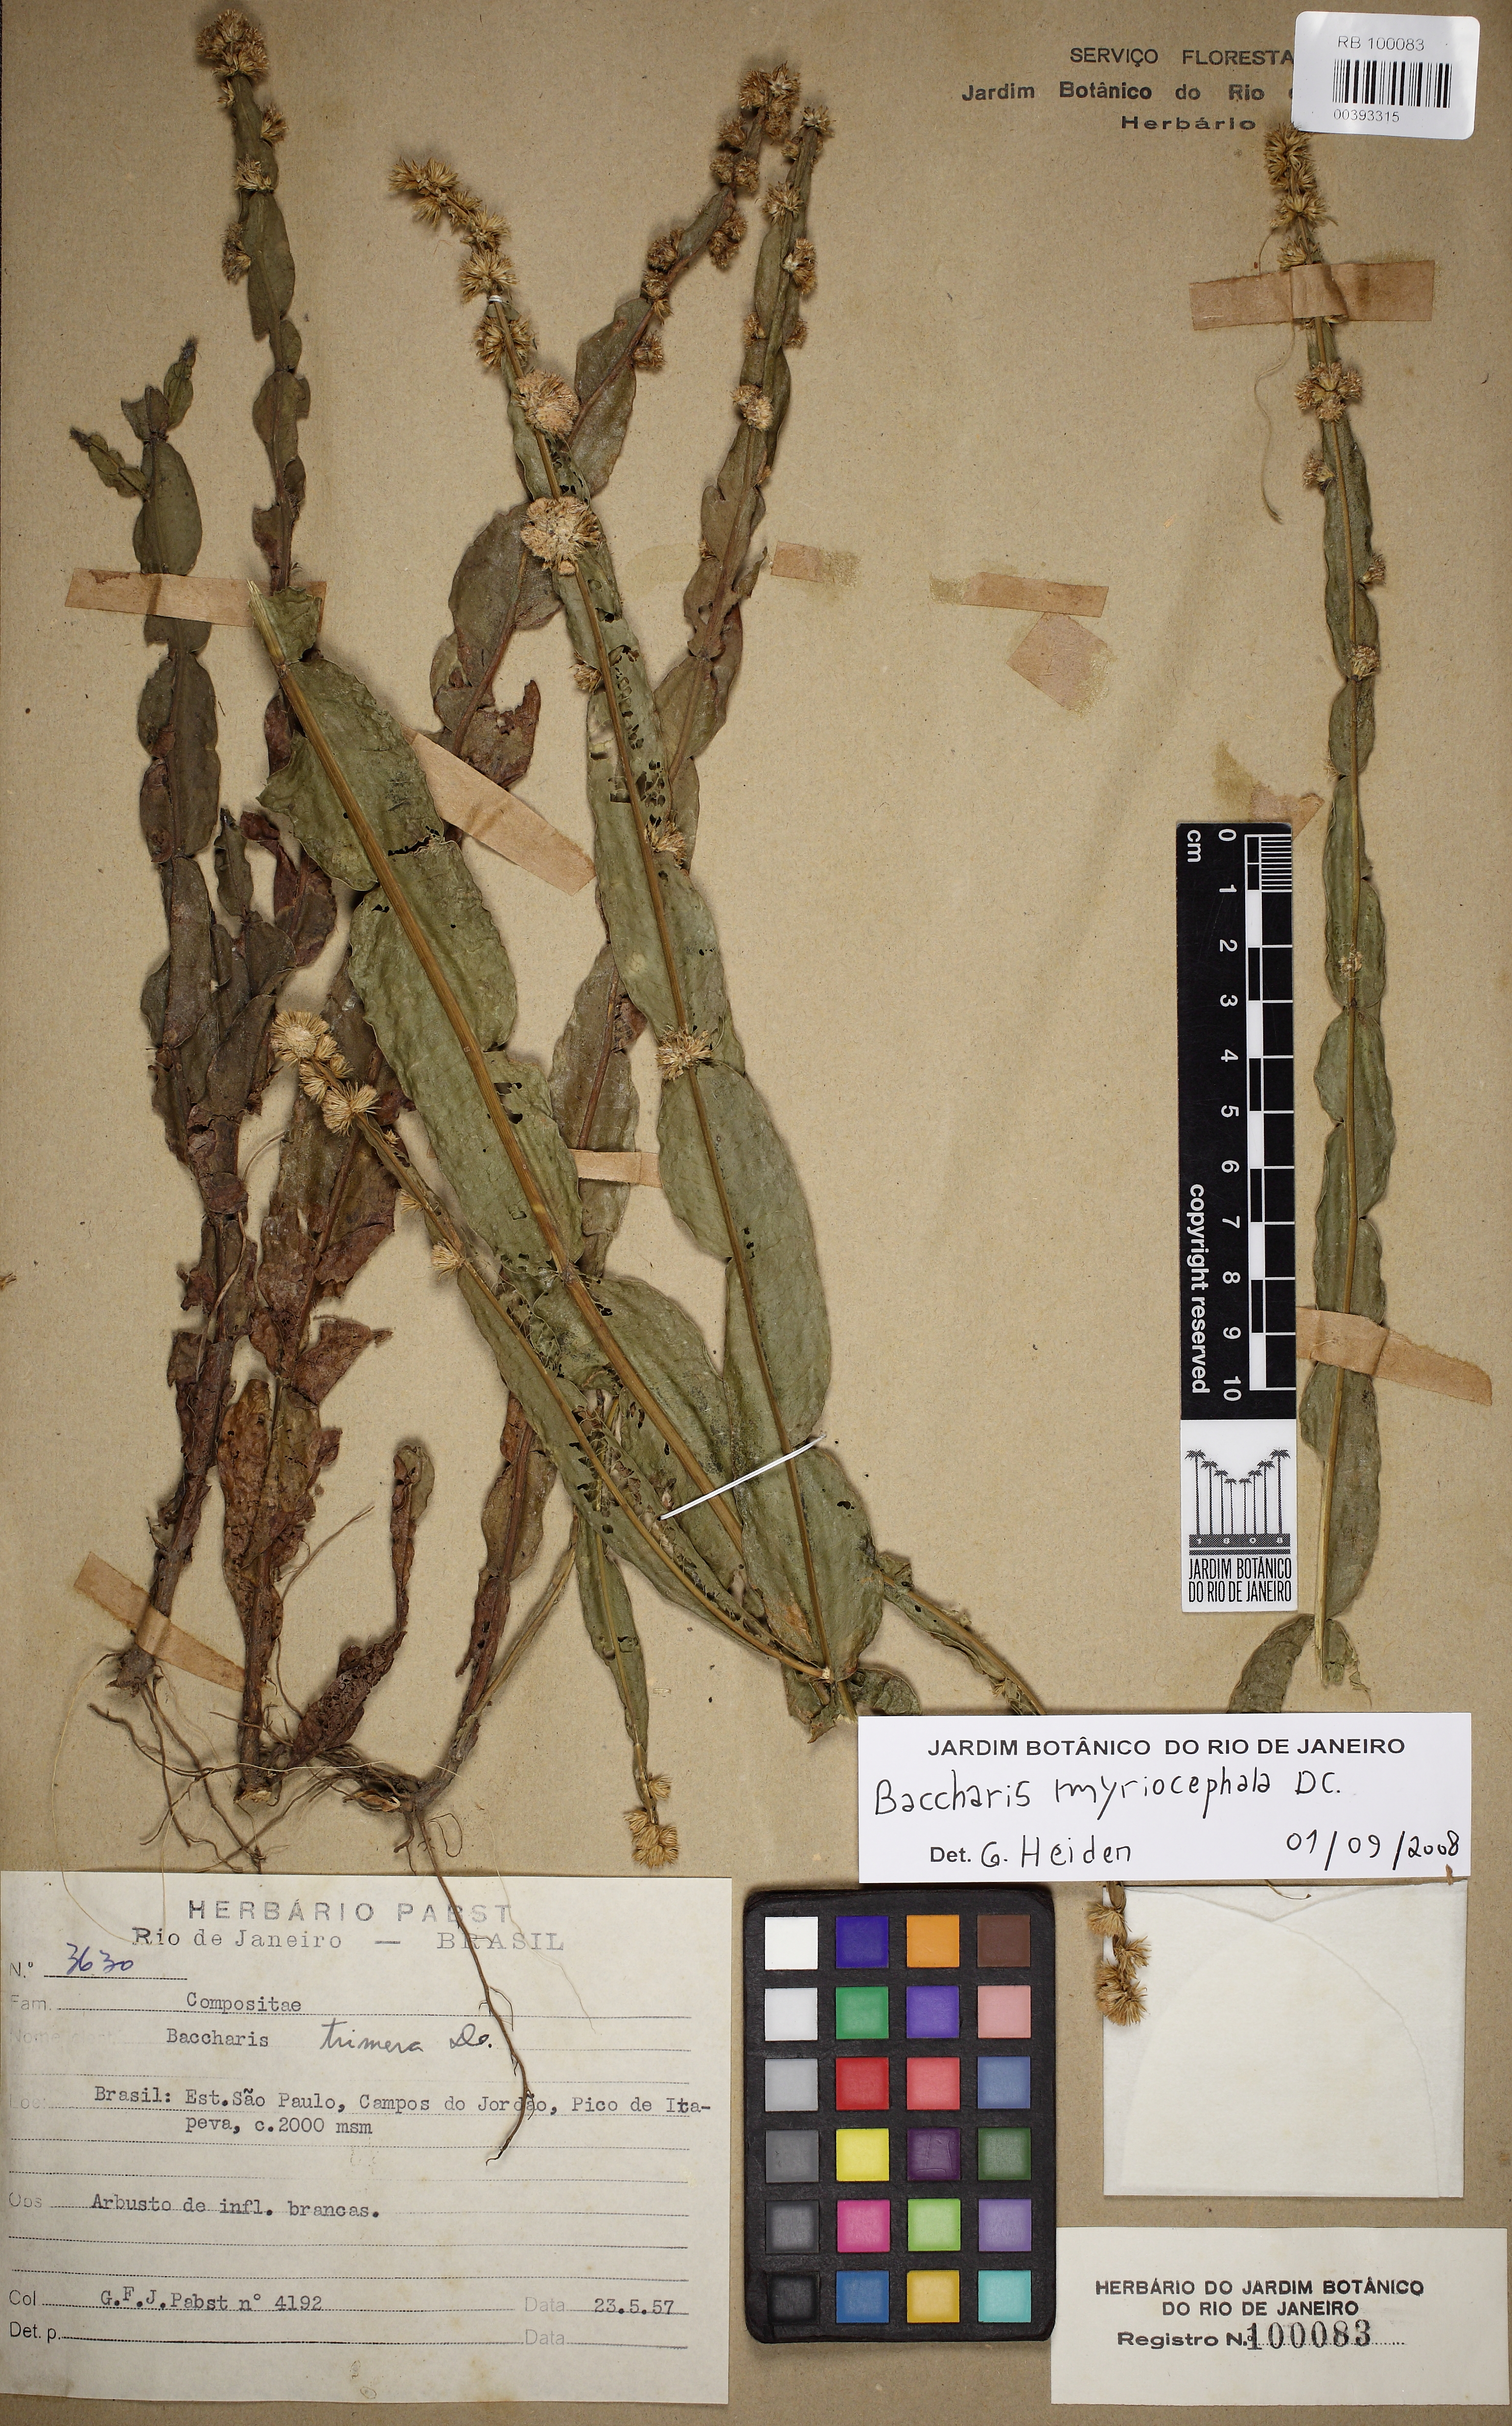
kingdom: Plantae
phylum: Tracheophyta
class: Magnoliopsida
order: Asterales
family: Asteraceae
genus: Baccharis
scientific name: Baccharis myriocephala
